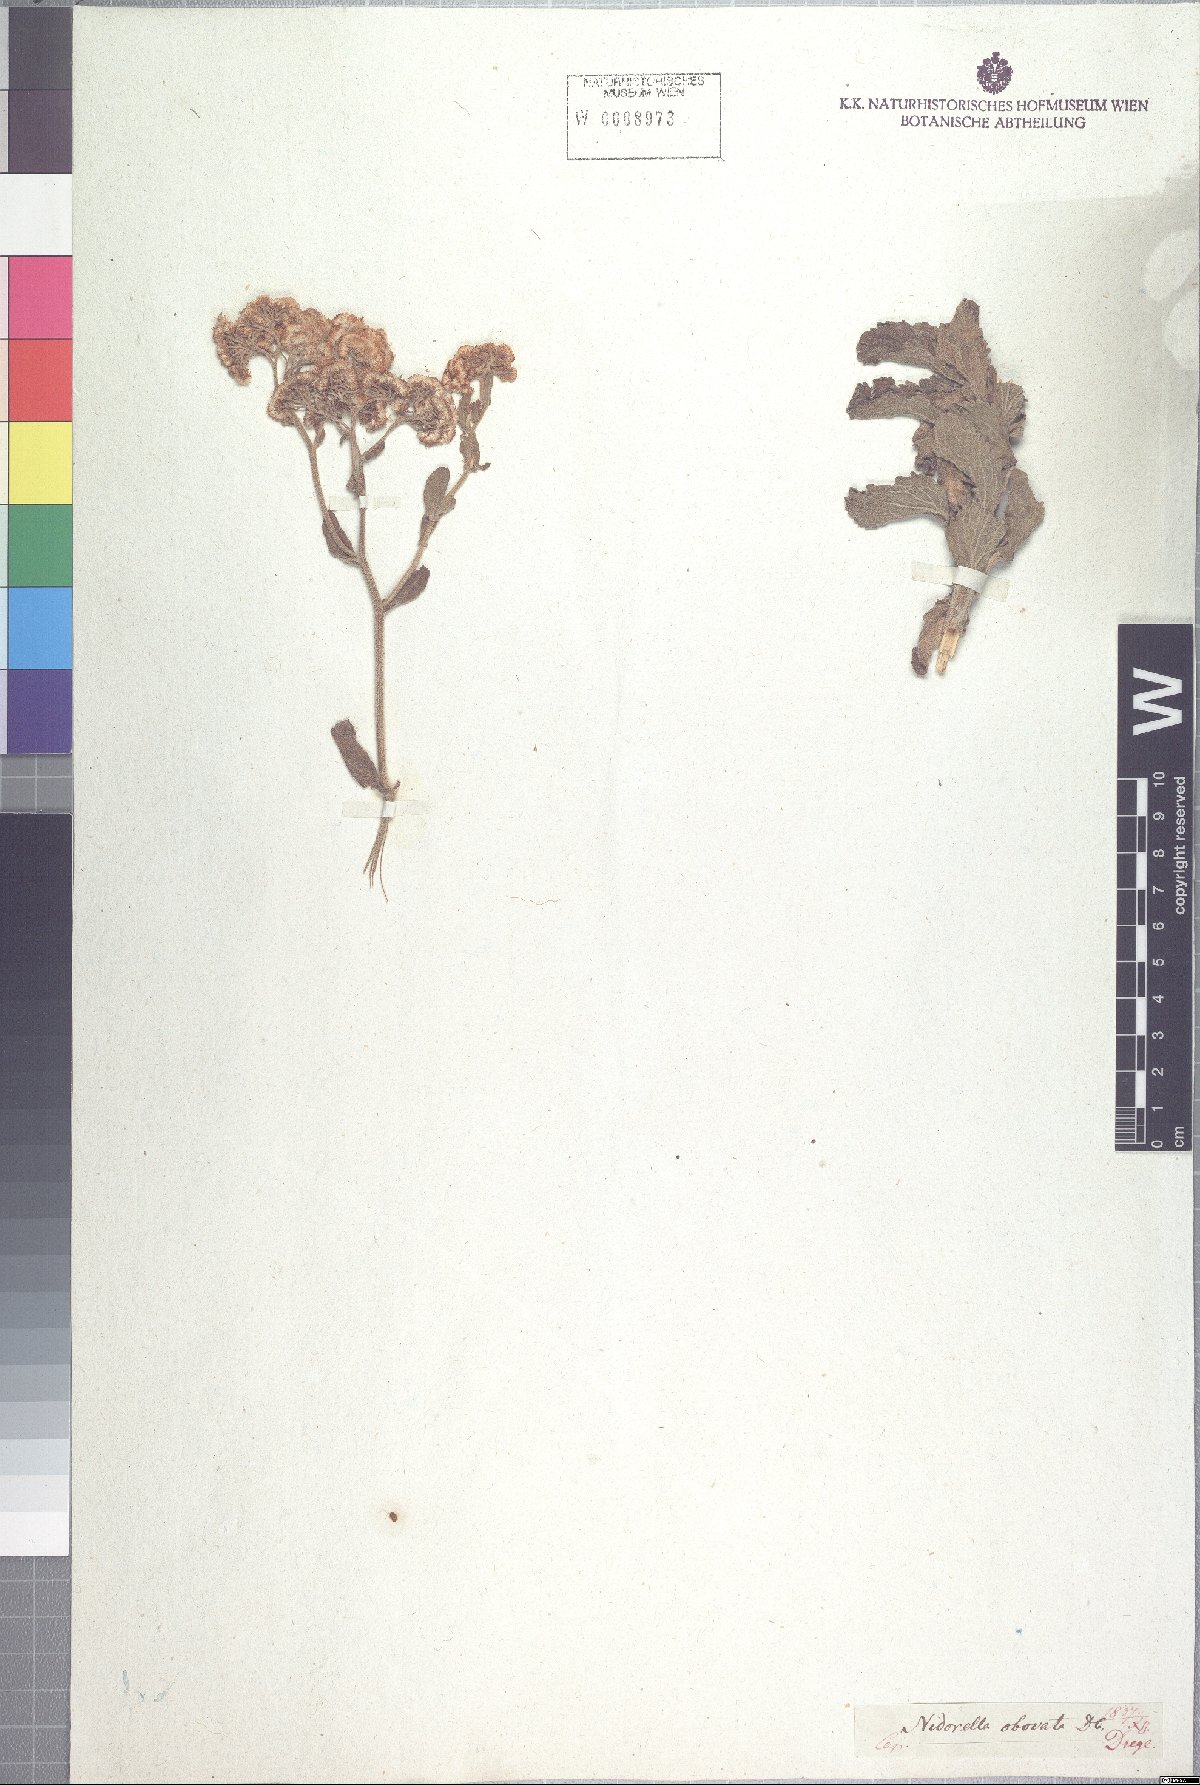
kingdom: Plantae
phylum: Tracheophyta
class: Magnoliopsida
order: Asterales
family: Asteraceae
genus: Nidorella
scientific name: Nidorella auriculata
